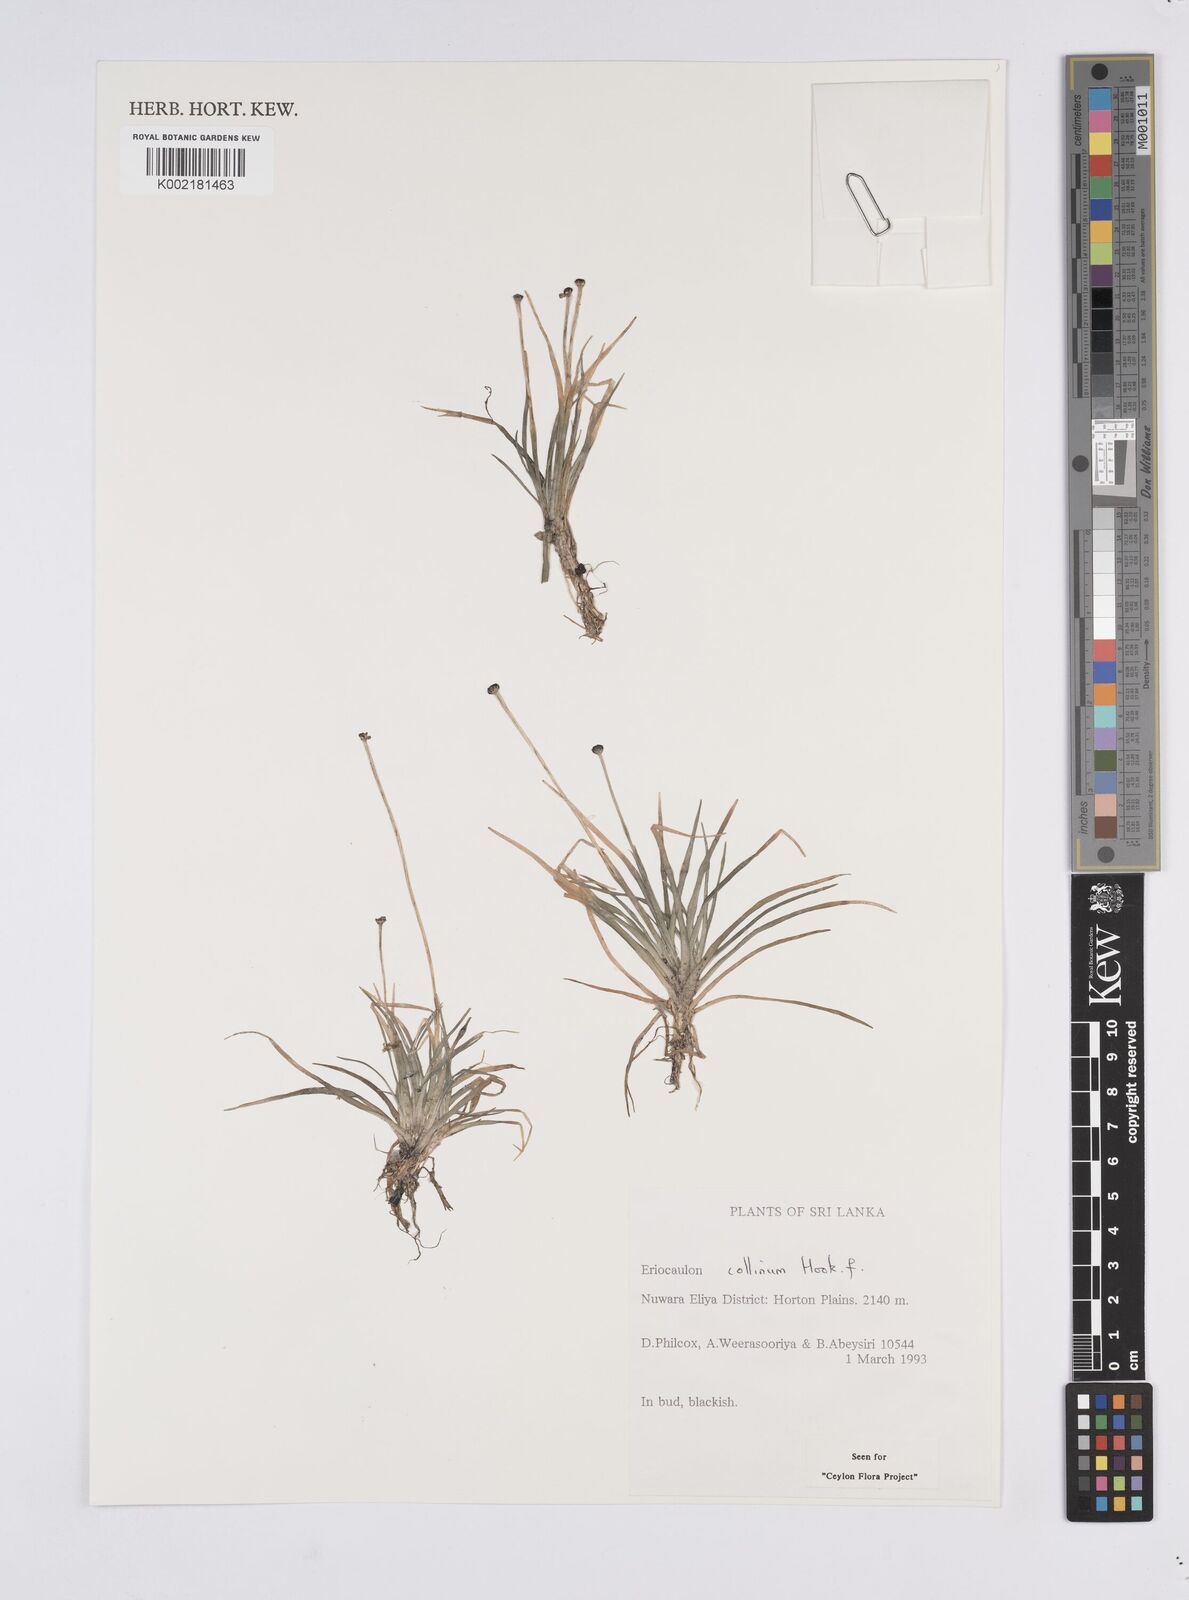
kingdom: Plantae
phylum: Tracheophyta
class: Liliopsida
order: Poales
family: Eriocaulaceae
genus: Eriocaulon
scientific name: Eriocaulon odoratum
